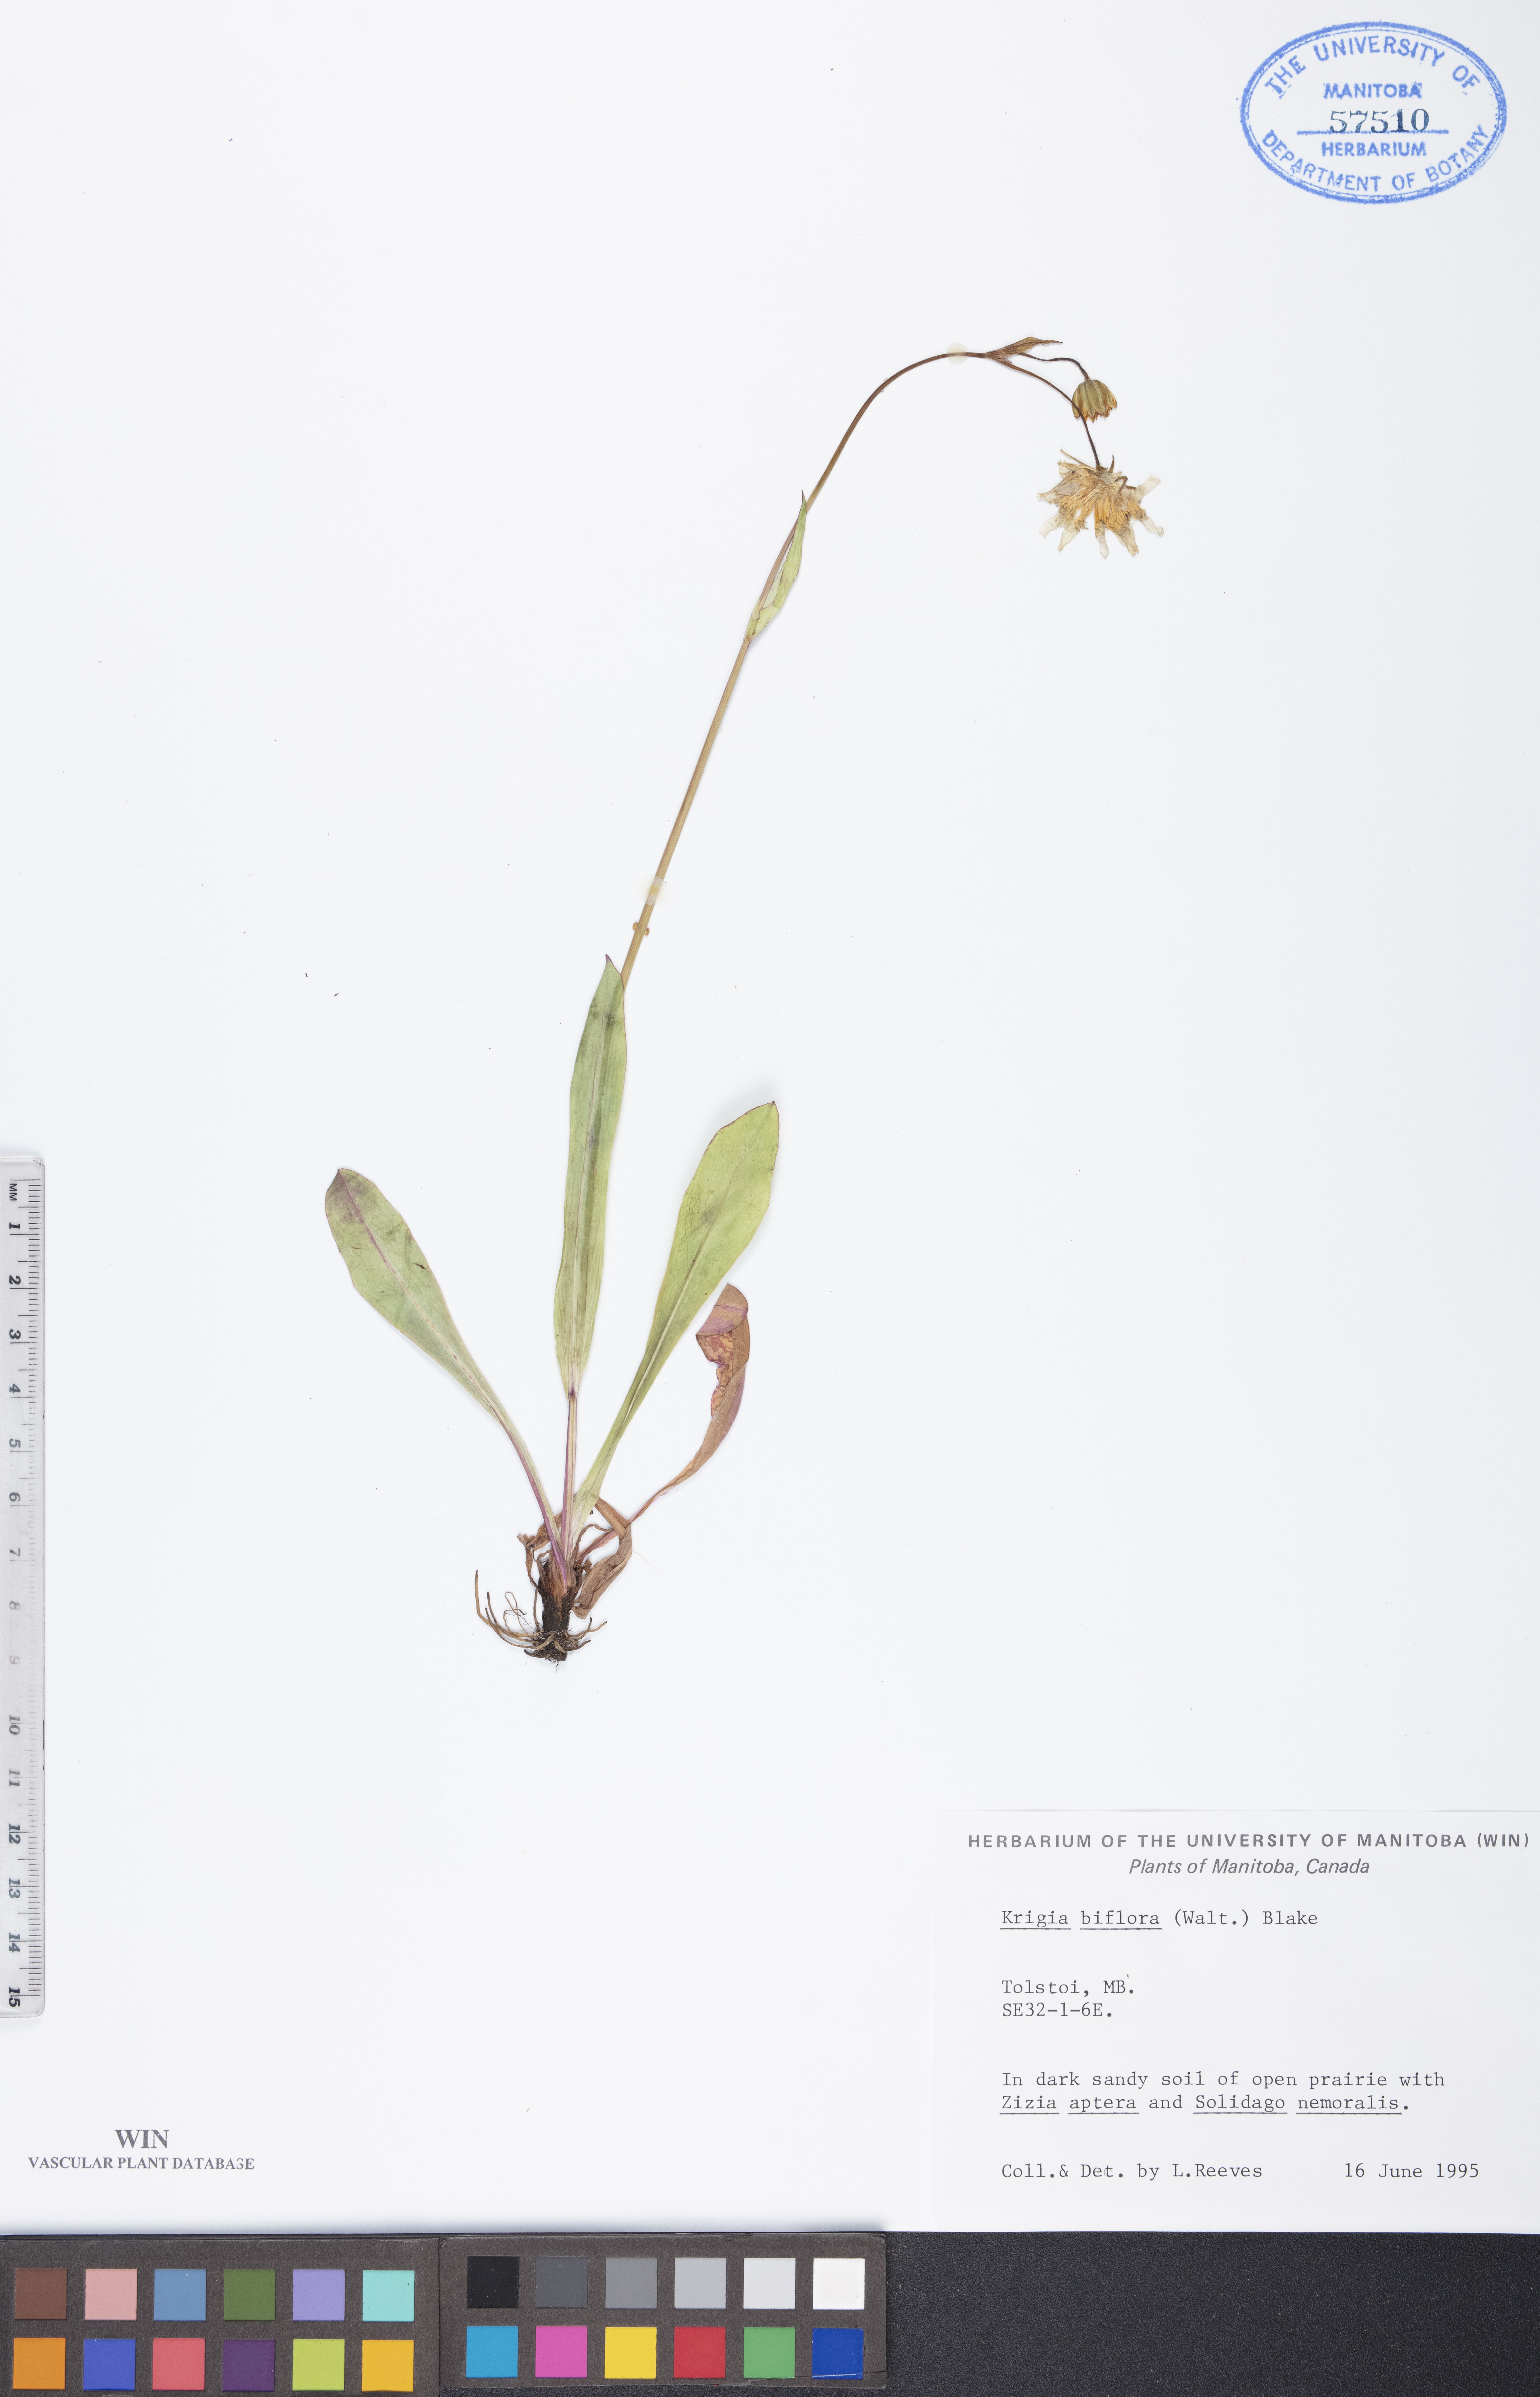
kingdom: Plantae
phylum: Tracheophyta
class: Magnoliopsida
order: Asterales
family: Asteraceae
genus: Krigia
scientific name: Krigia biflora
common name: Orange dwarf-dandelion
